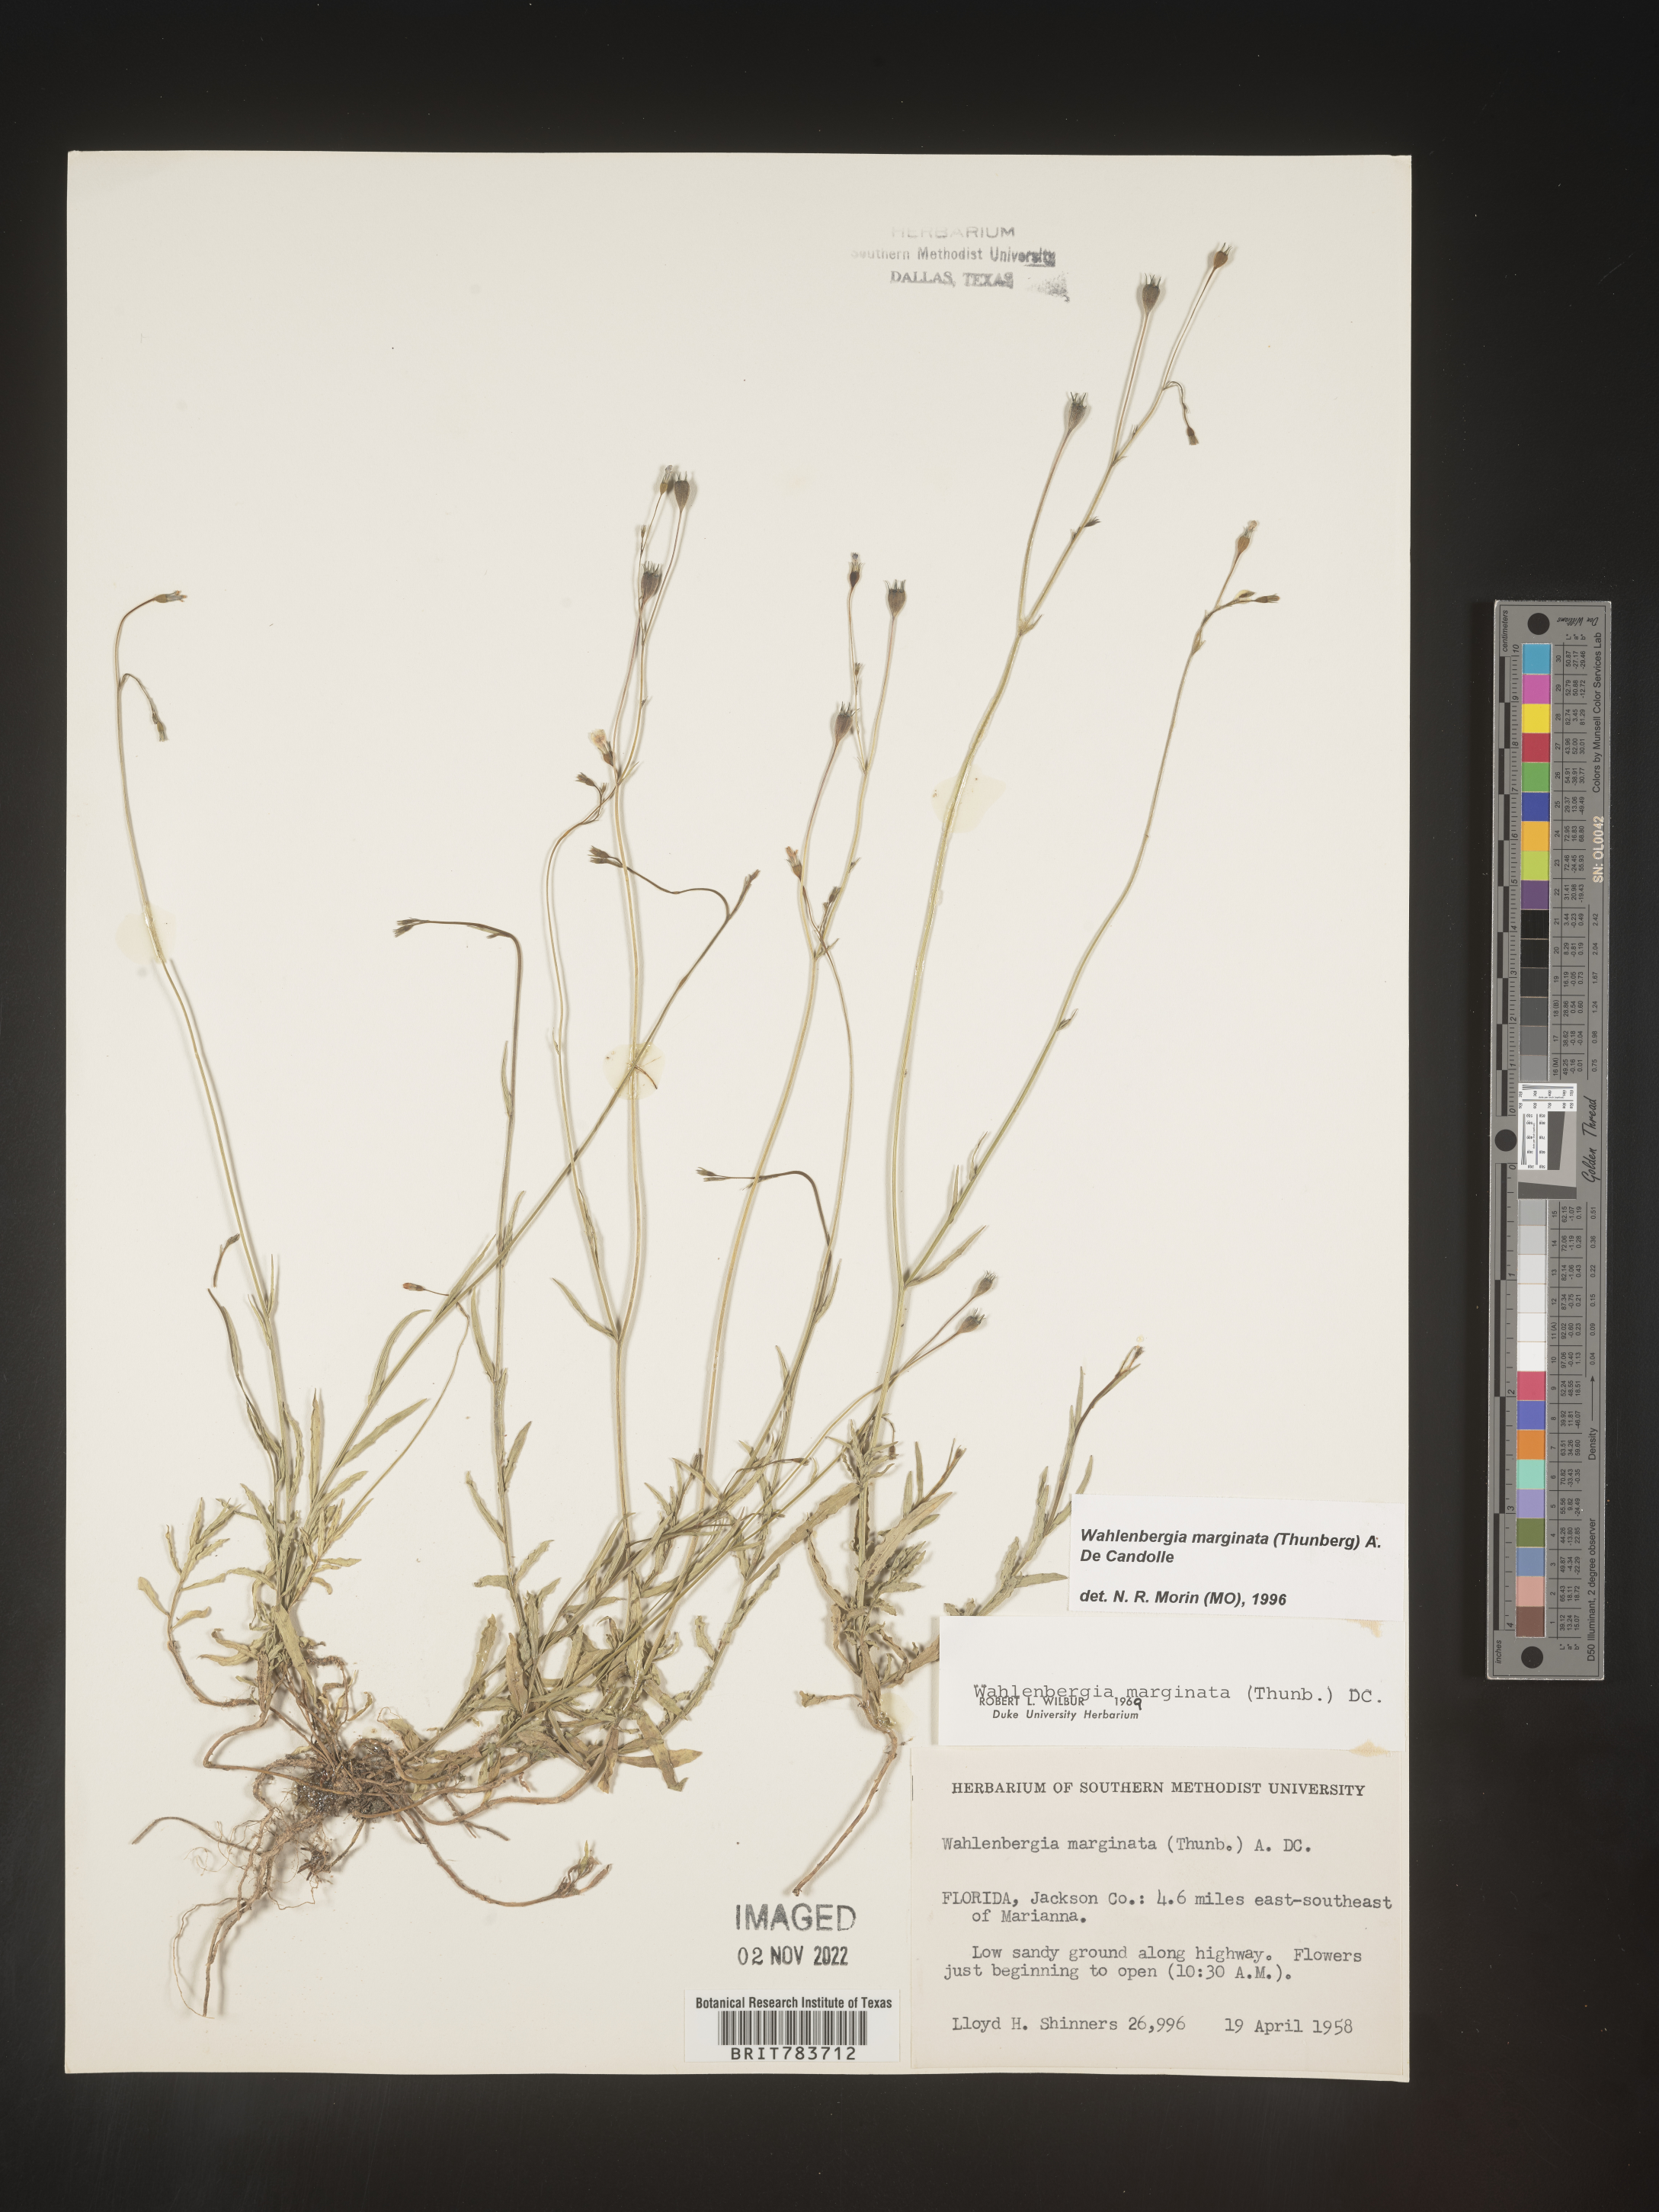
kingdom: Plantae
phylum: Tracheophyta
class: Magnoliopsida
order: Asterales
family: Campanulaceae
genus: Wahlenbergia
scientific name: Wahlenbergia marginata
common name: Southern rockbell
